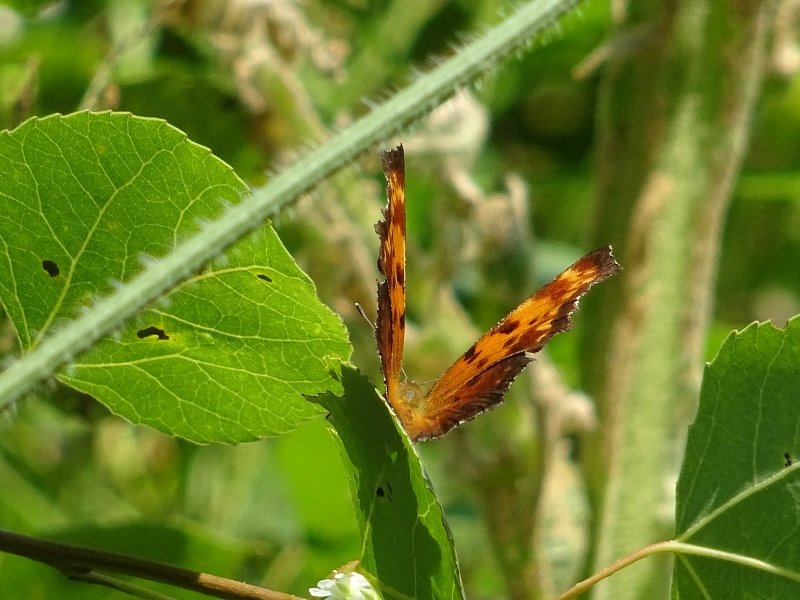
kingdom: Animalia
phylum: Arthropoda
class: Insecta
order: Lepidoptera
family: Nymphalidae
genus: Polygonia
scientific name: Polygonia
